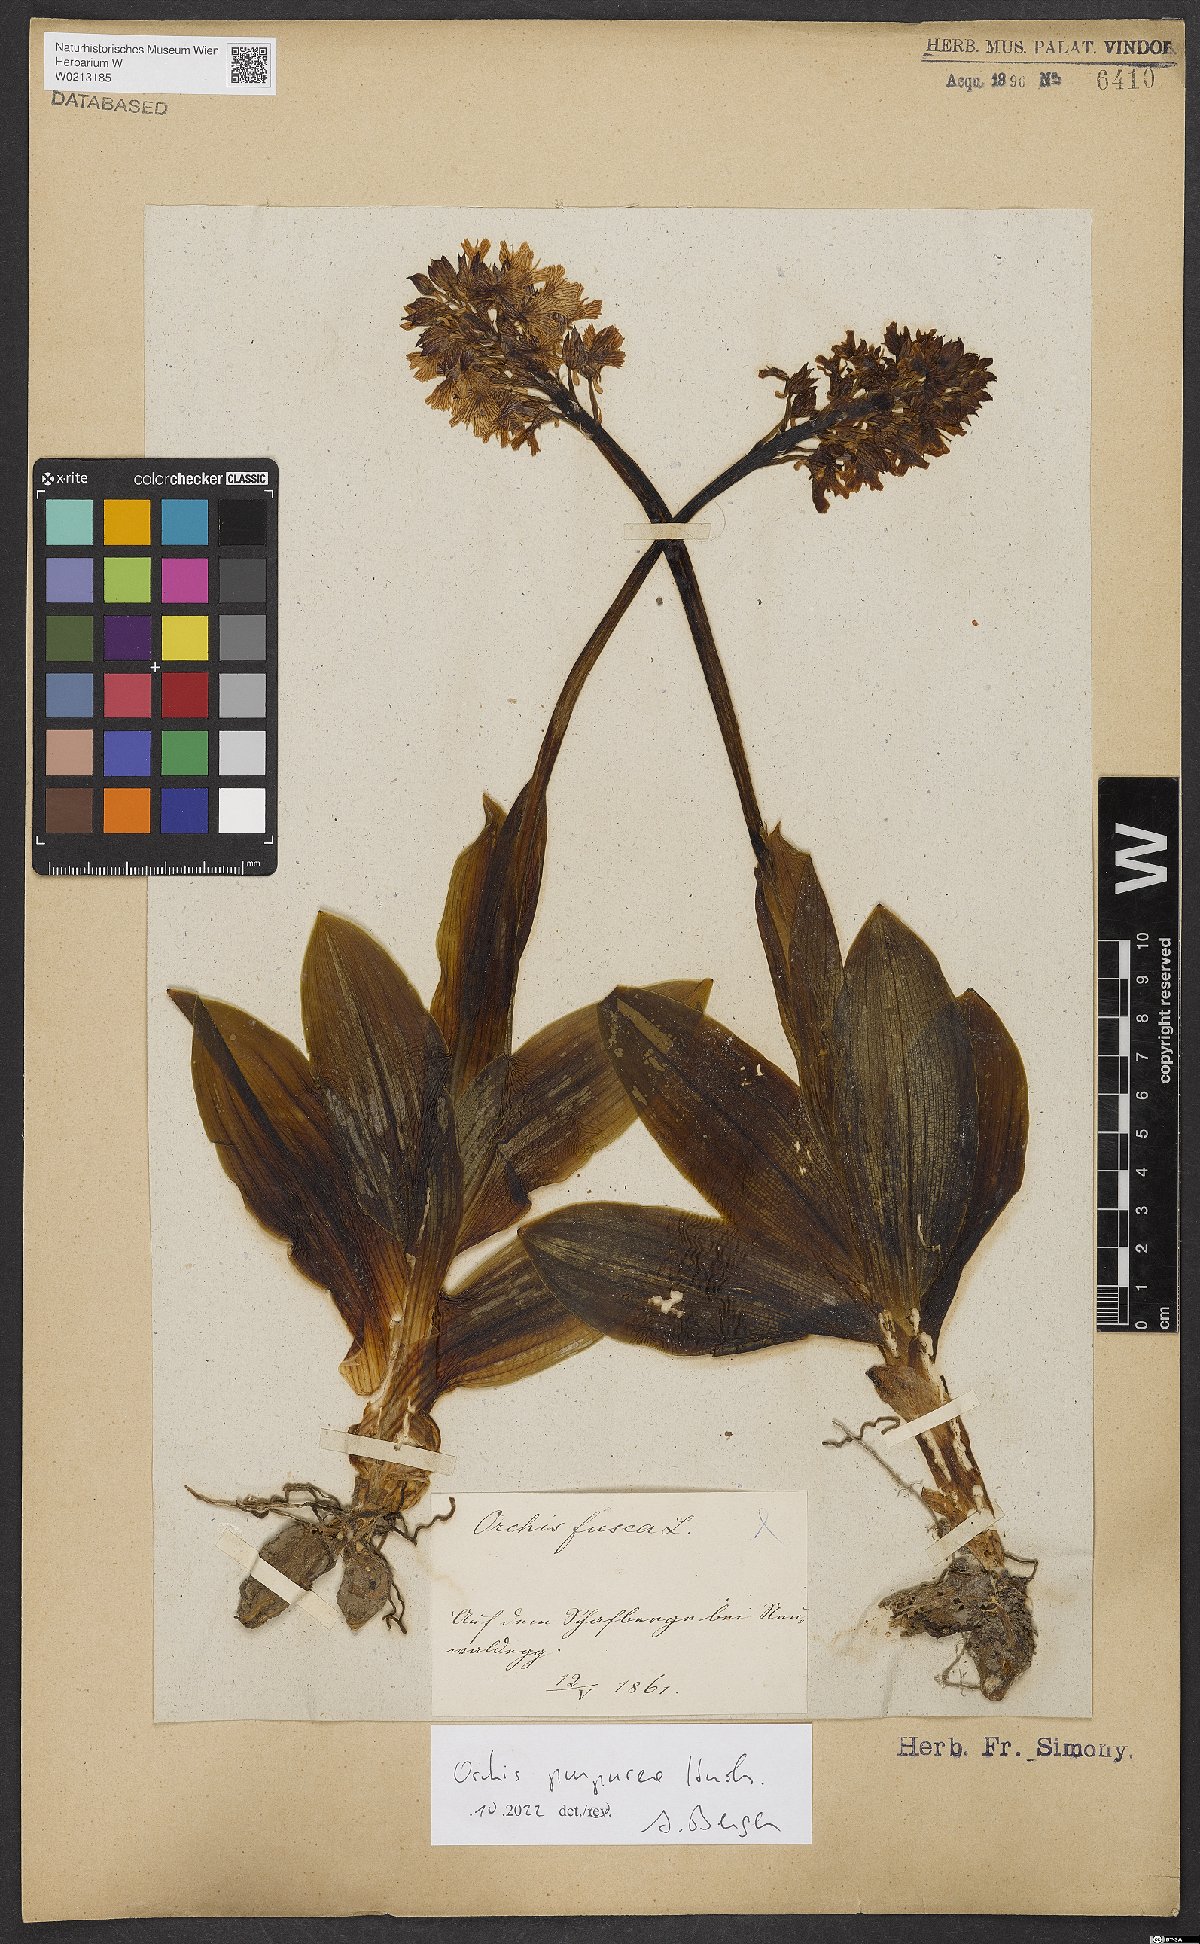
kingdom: Plantae
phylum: Tracheophyta
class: Liliopsida
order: Asparagales
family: Orchidaceae
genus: Orchis
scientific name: Orchis purpurea
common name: Lady orchid
